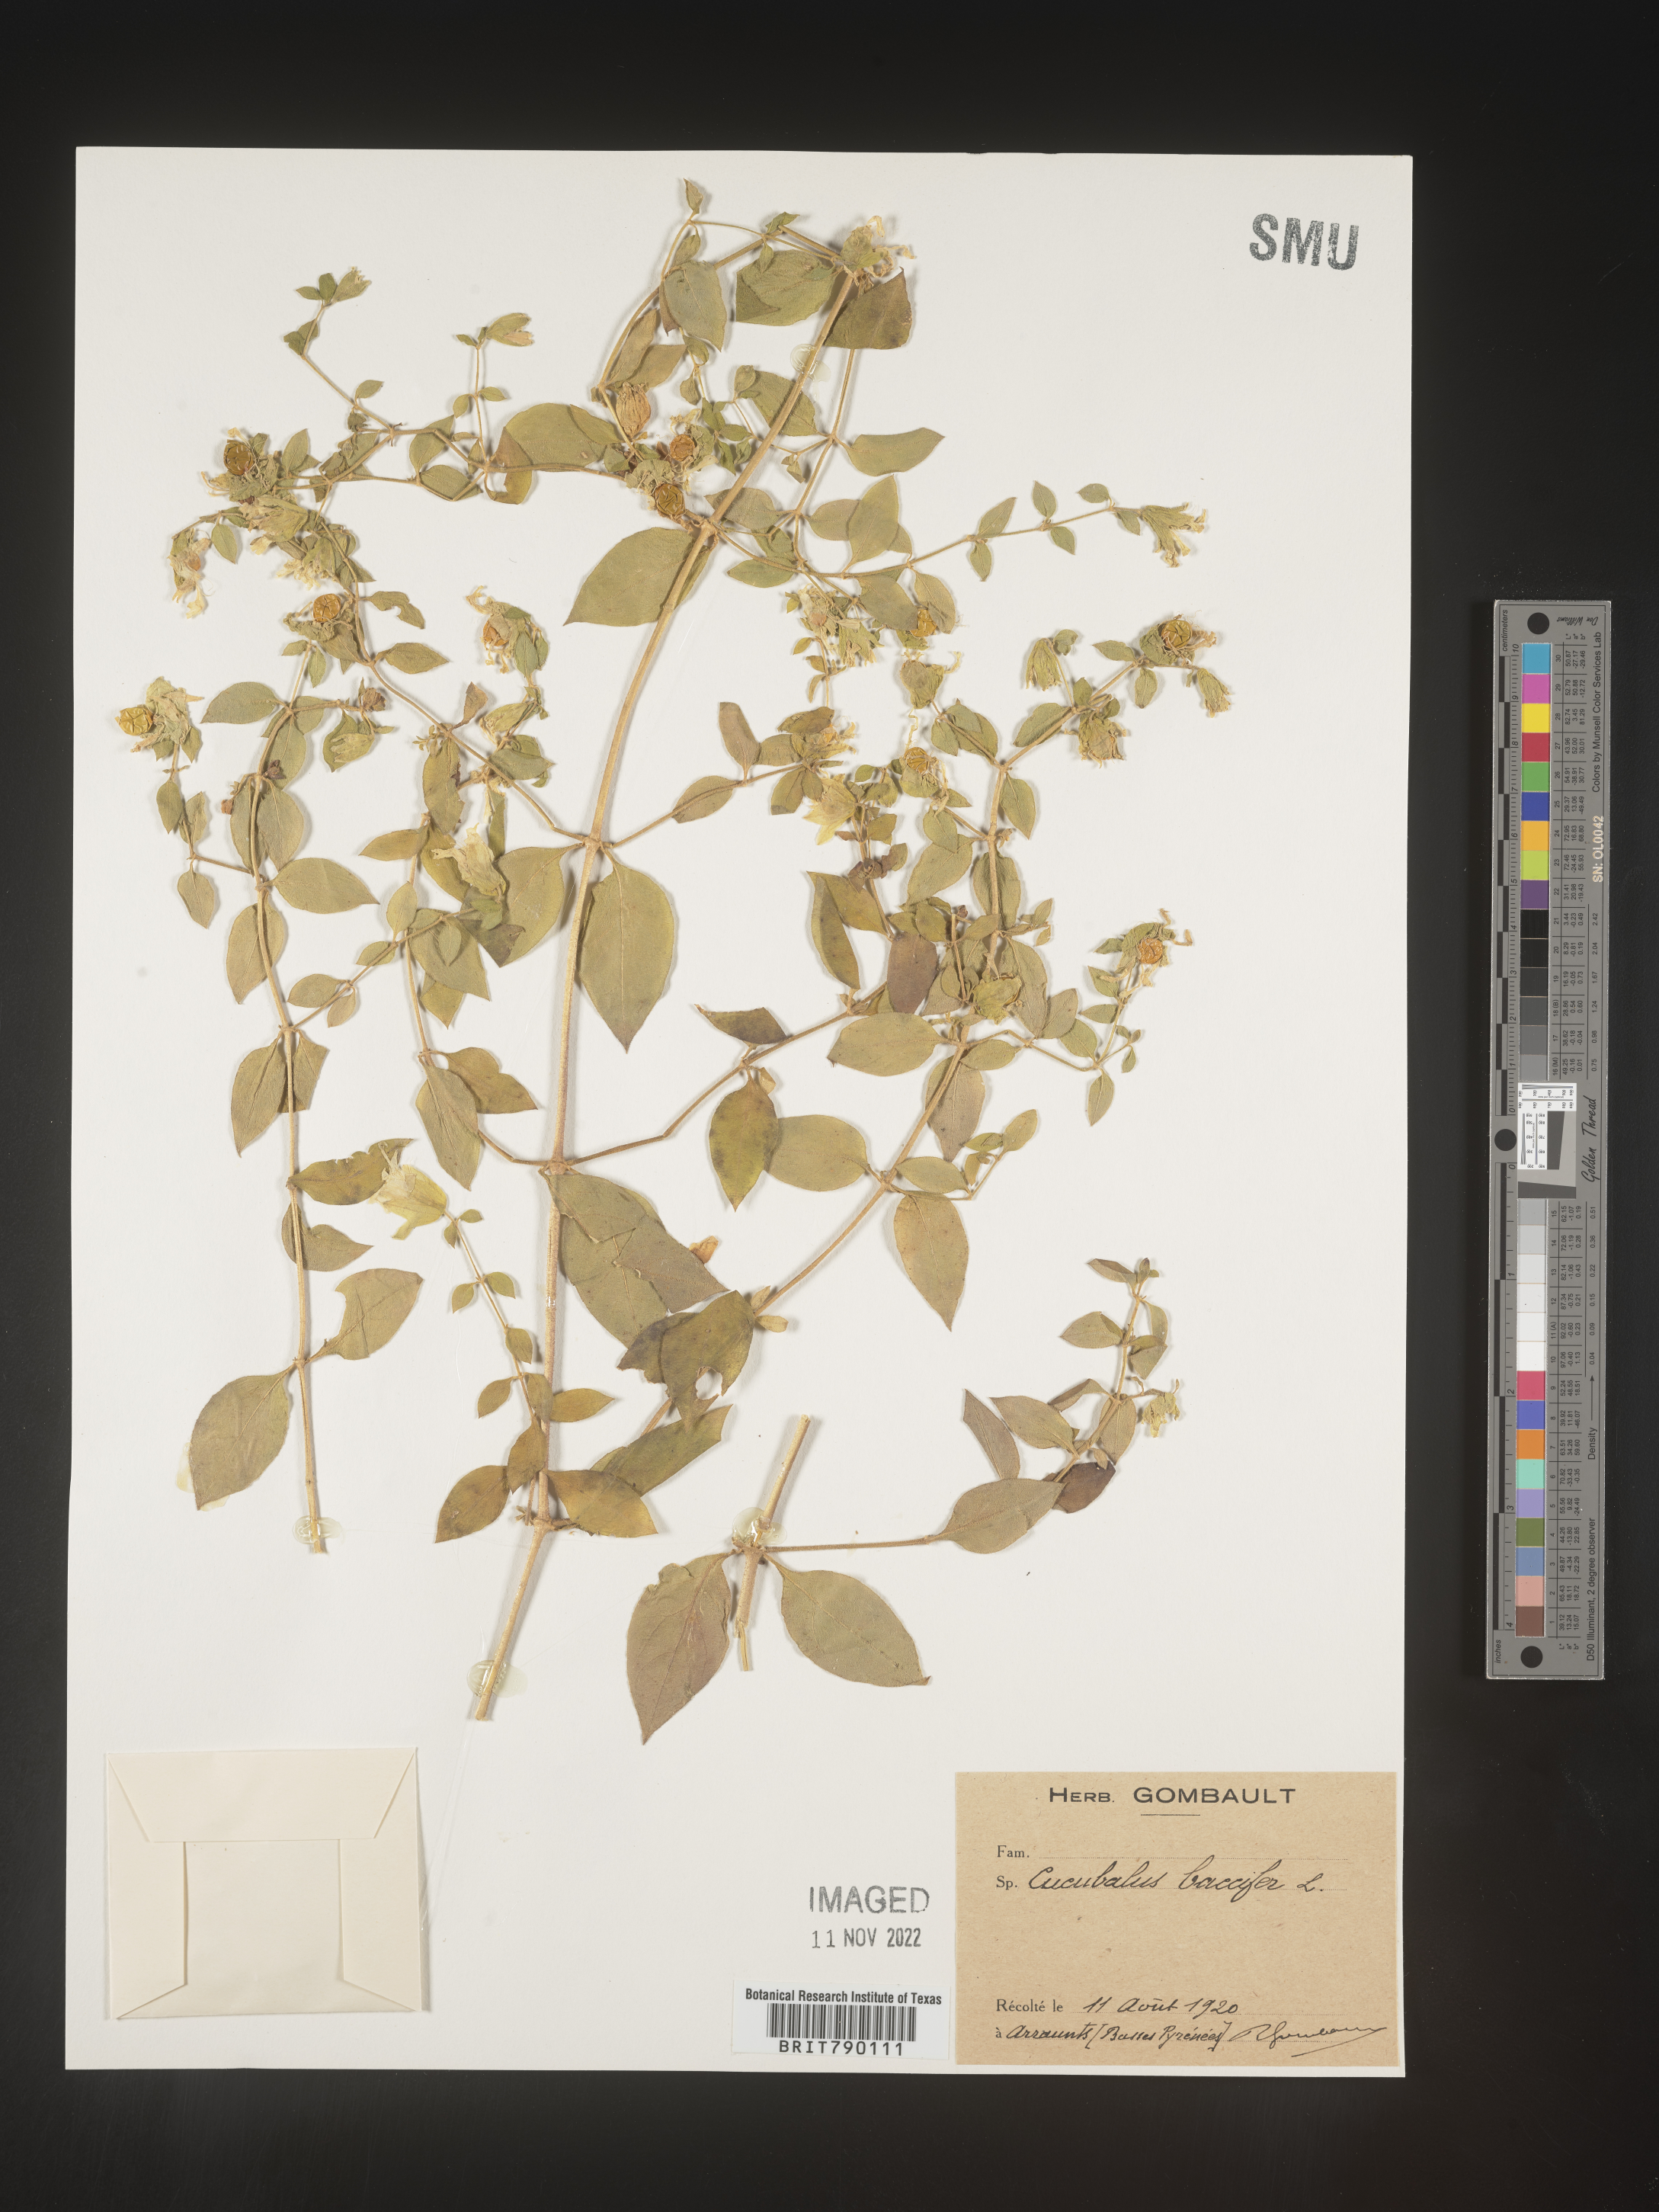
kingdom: Animalia
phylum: Cnidaria
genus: Cucubalus
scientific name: Cucubalus
